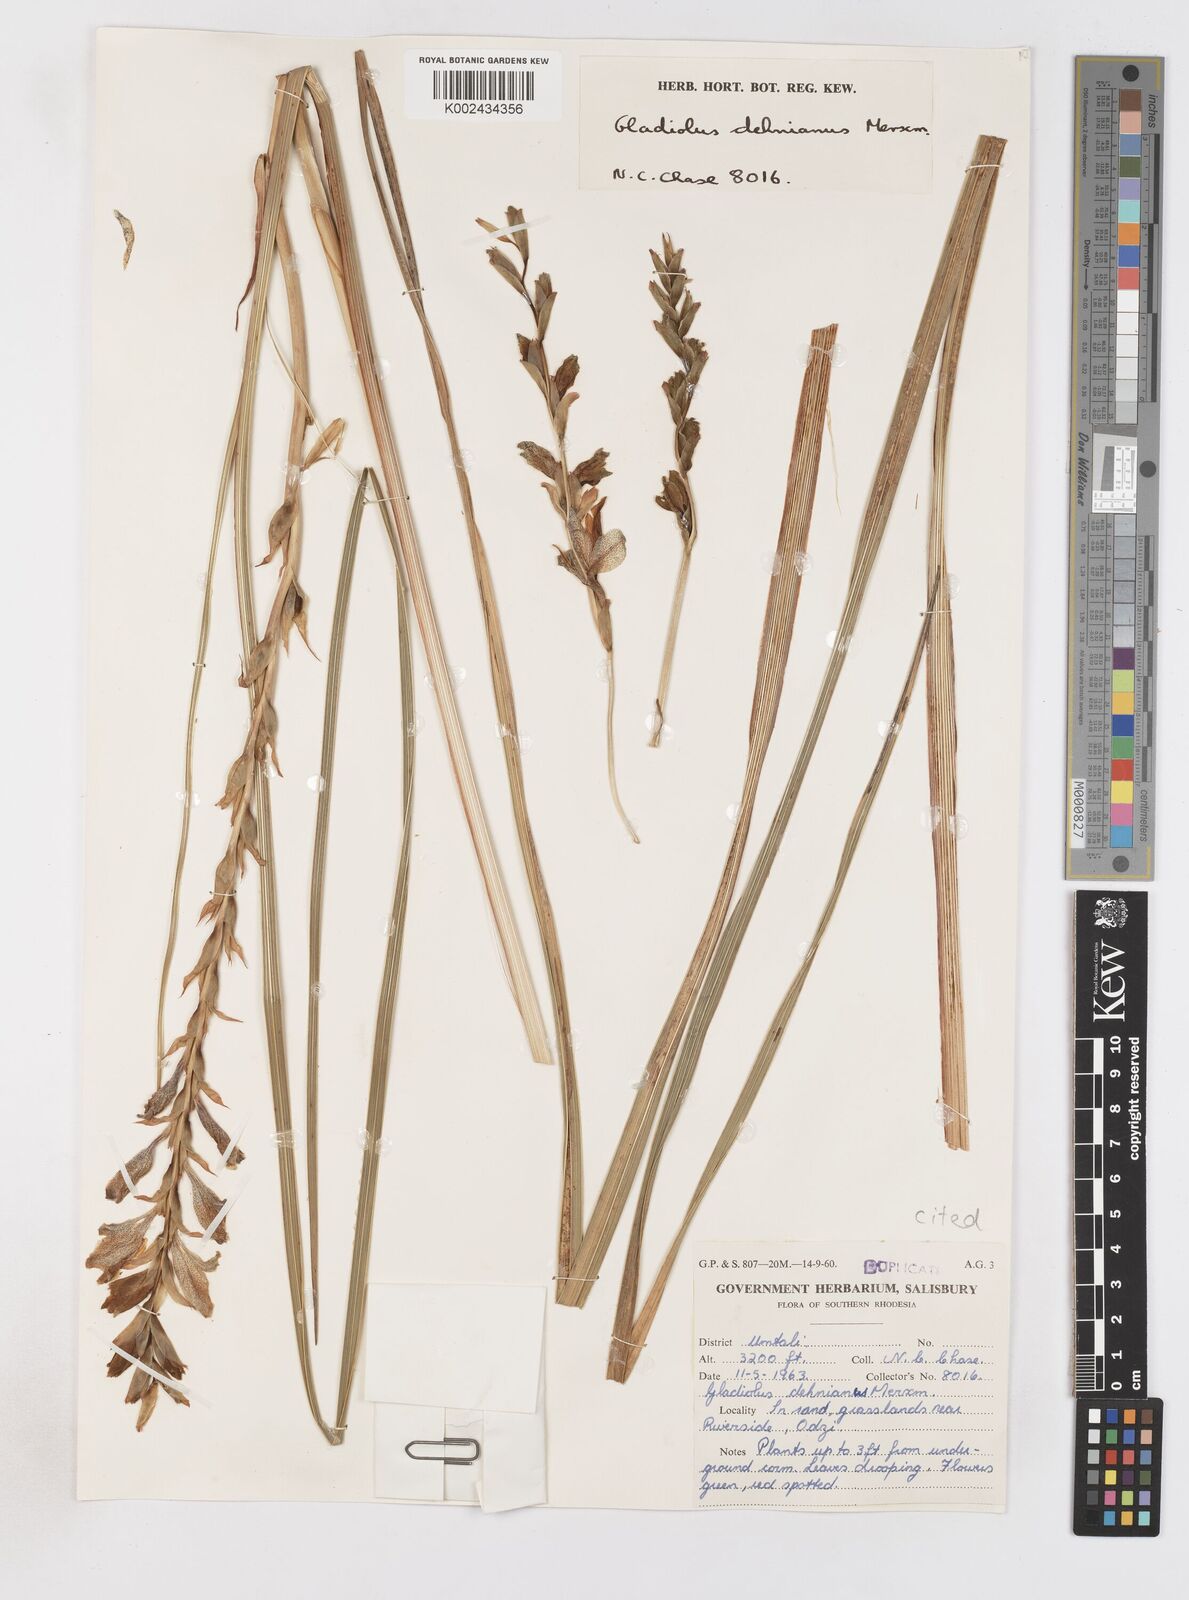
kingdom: Plantae
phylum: Tracheophyta
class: Liliopsida
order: Asparagales
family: Iridaceae
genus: Gladiolus
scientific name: Gladiolus sericeovillosus
